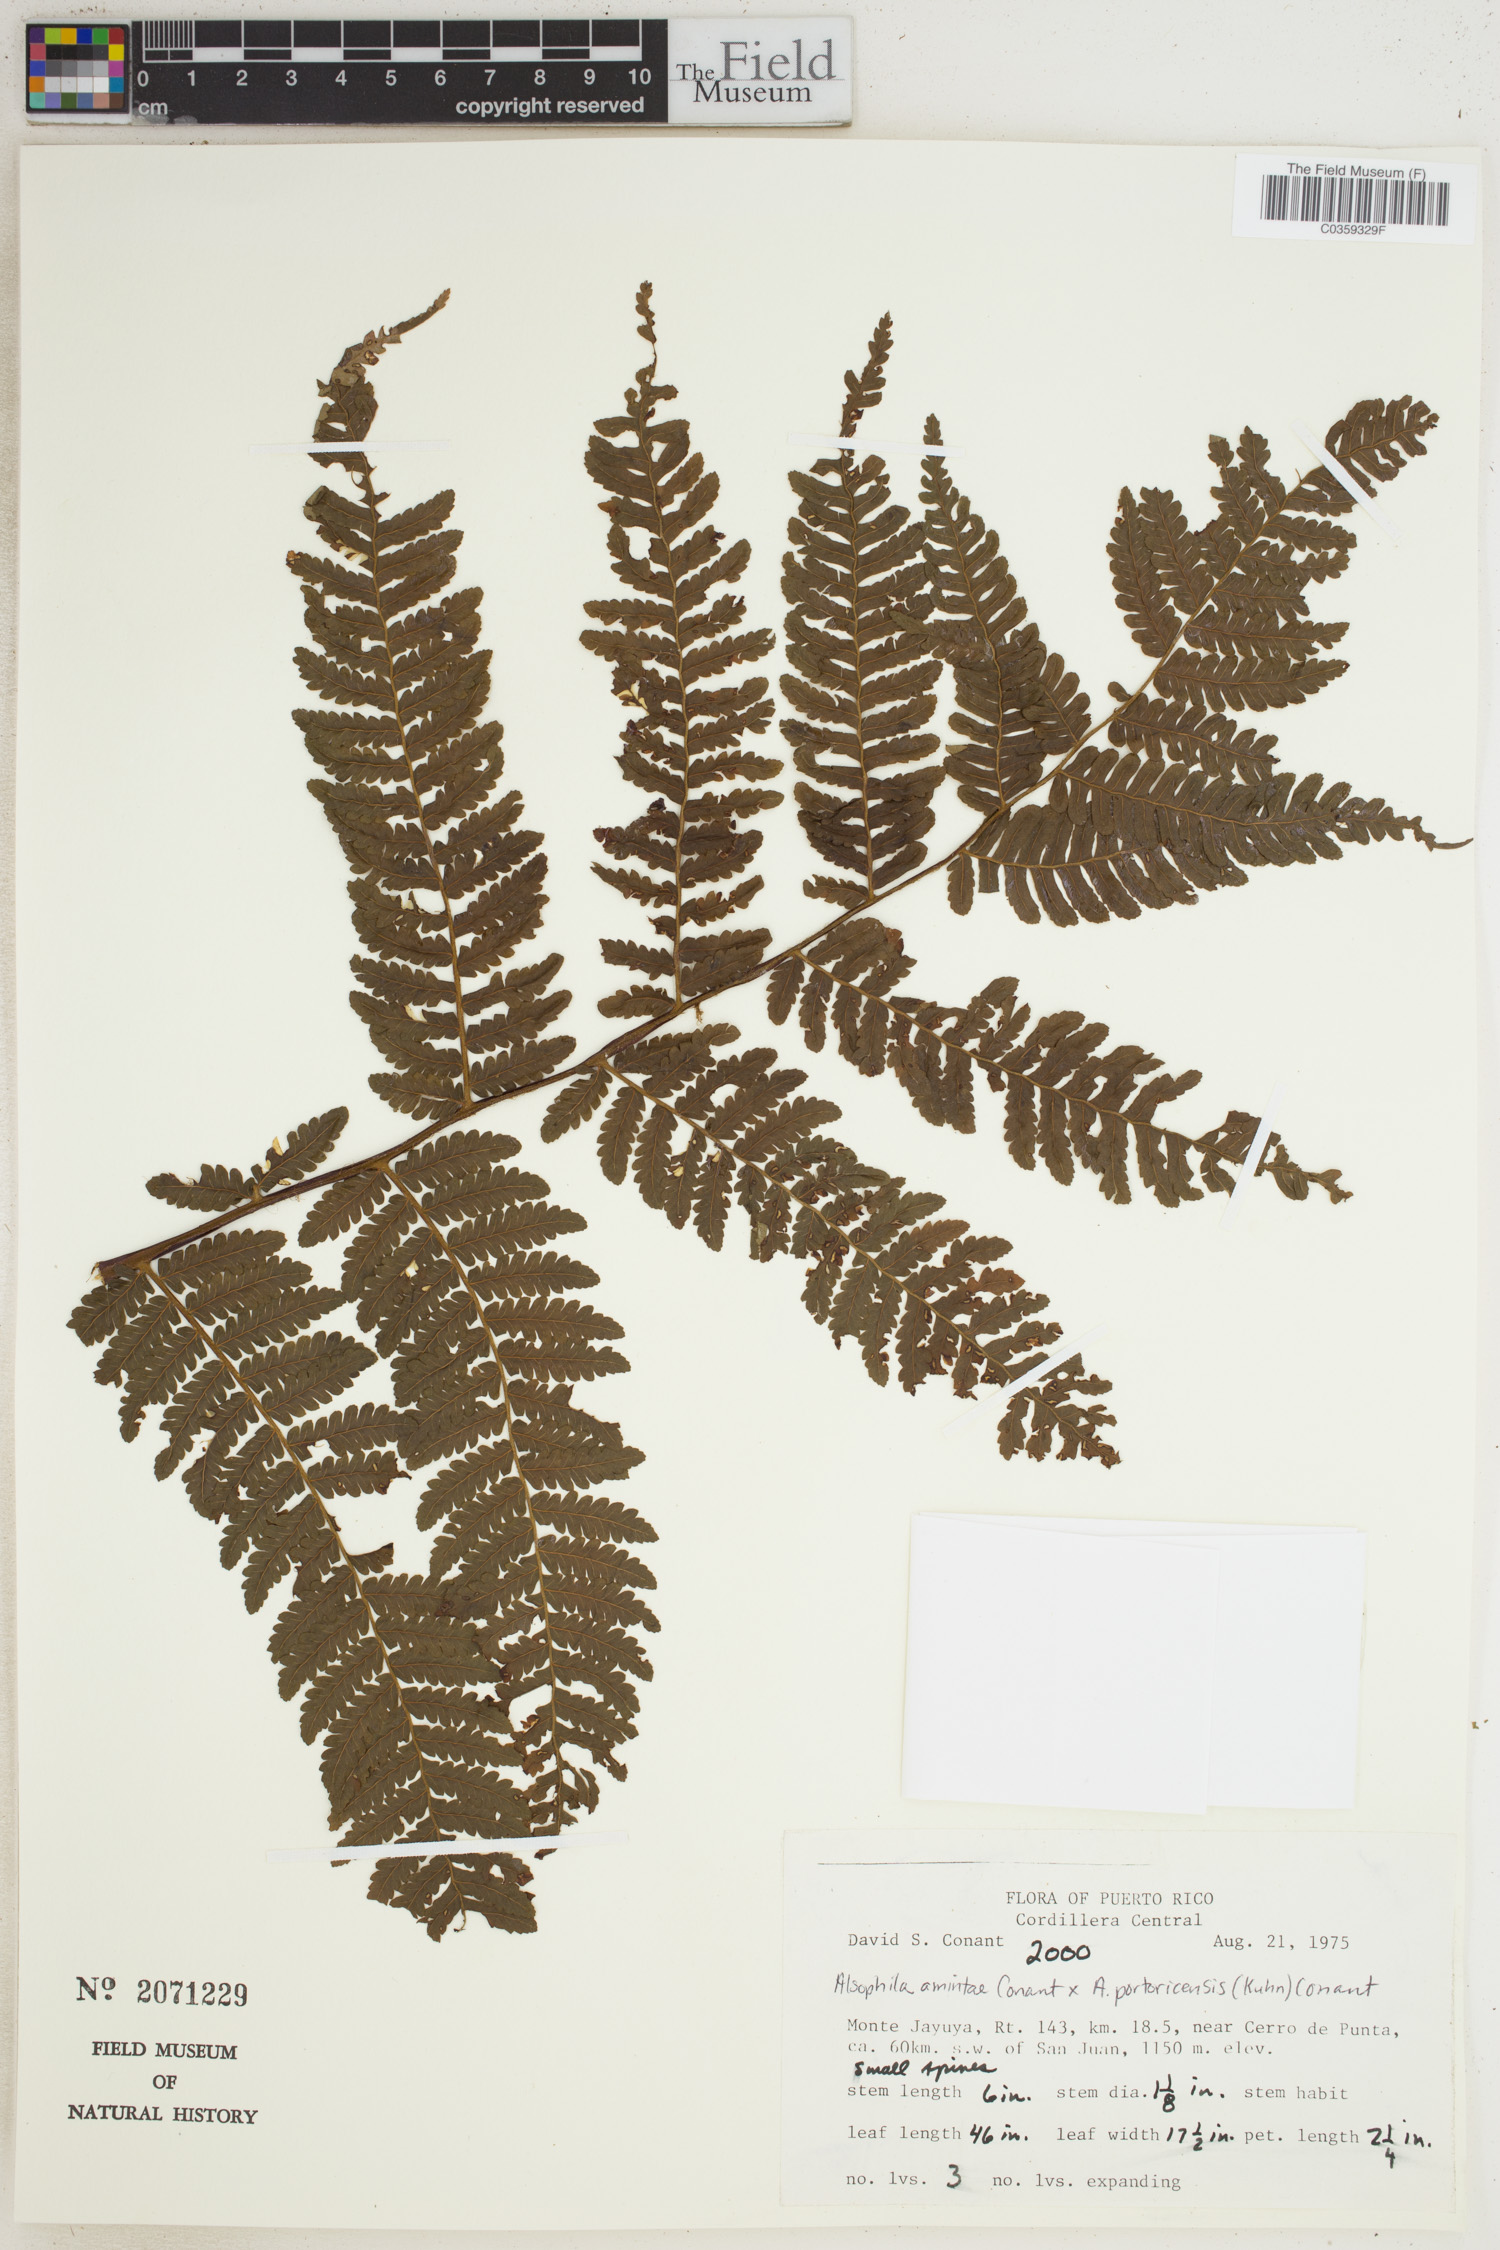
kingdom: Plantae
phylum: Tracheophyta
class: Polypodiopsida
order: Cyatheales
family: Cyatheaceae
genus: Alsophila
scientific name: Alsophila
